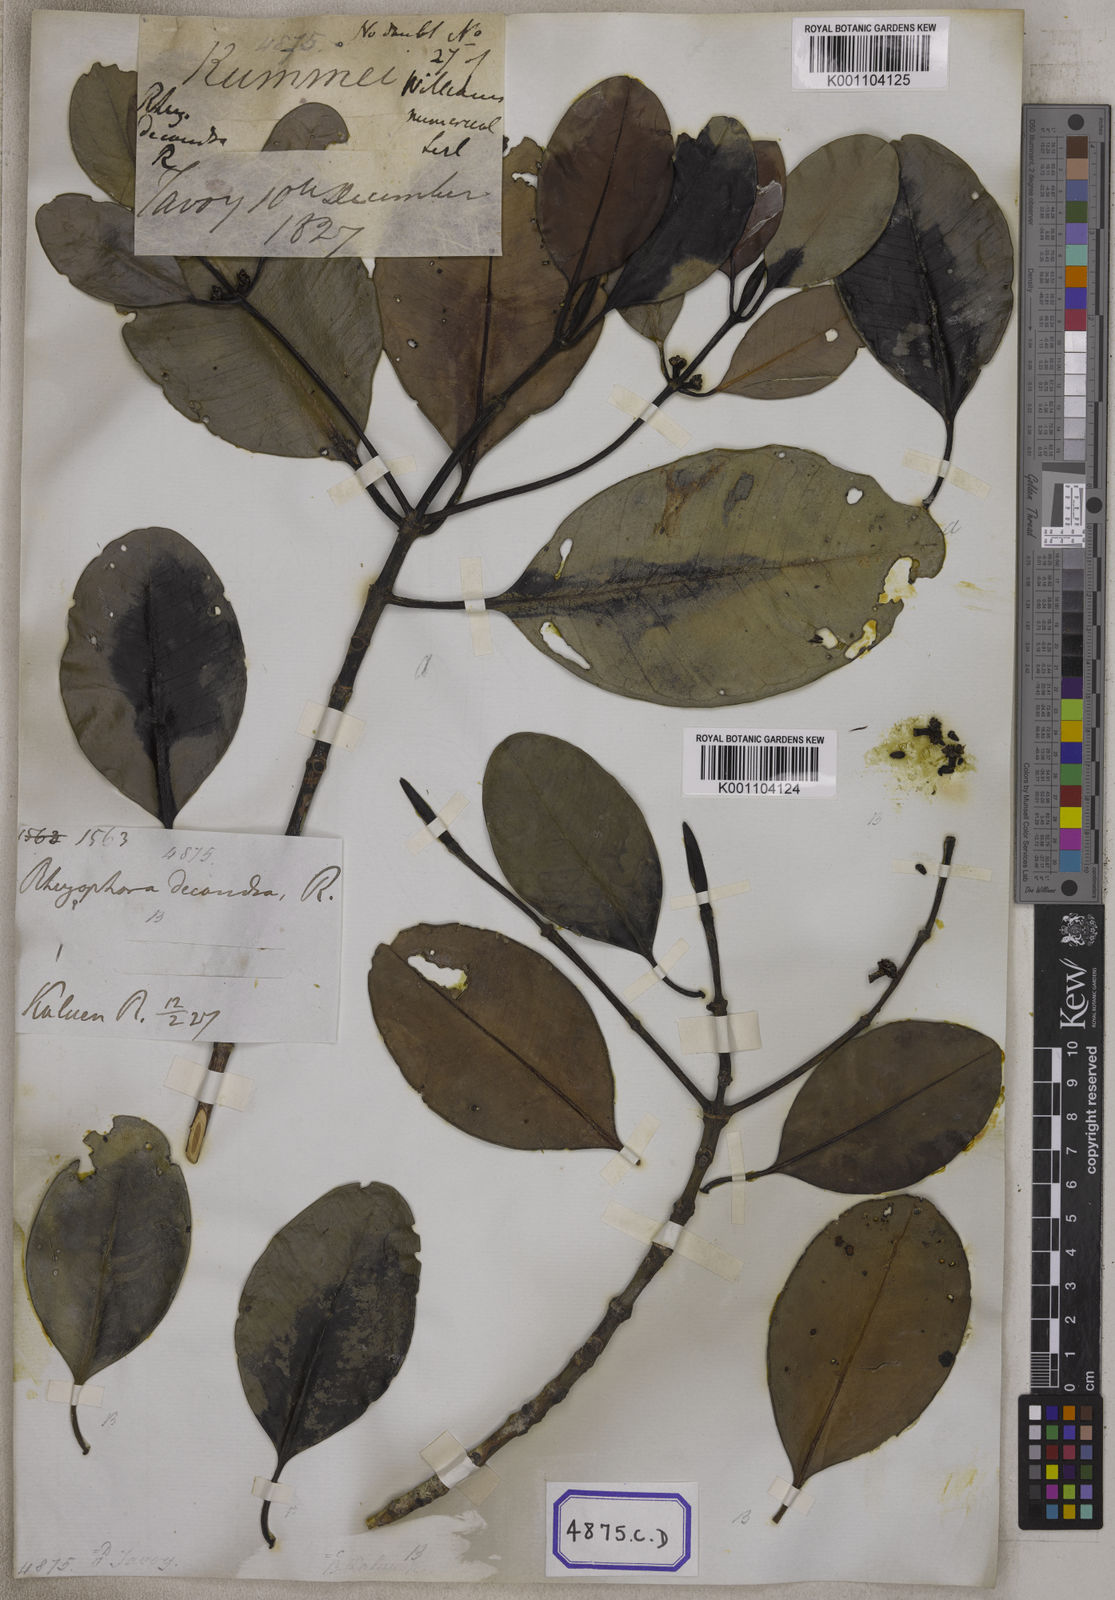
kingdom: Plantae
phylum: Tracheophyta
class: Magnoliopsida
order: Malpighiales
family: Rhizophoraceae
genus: Rhizophora
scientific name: Rhizophora
